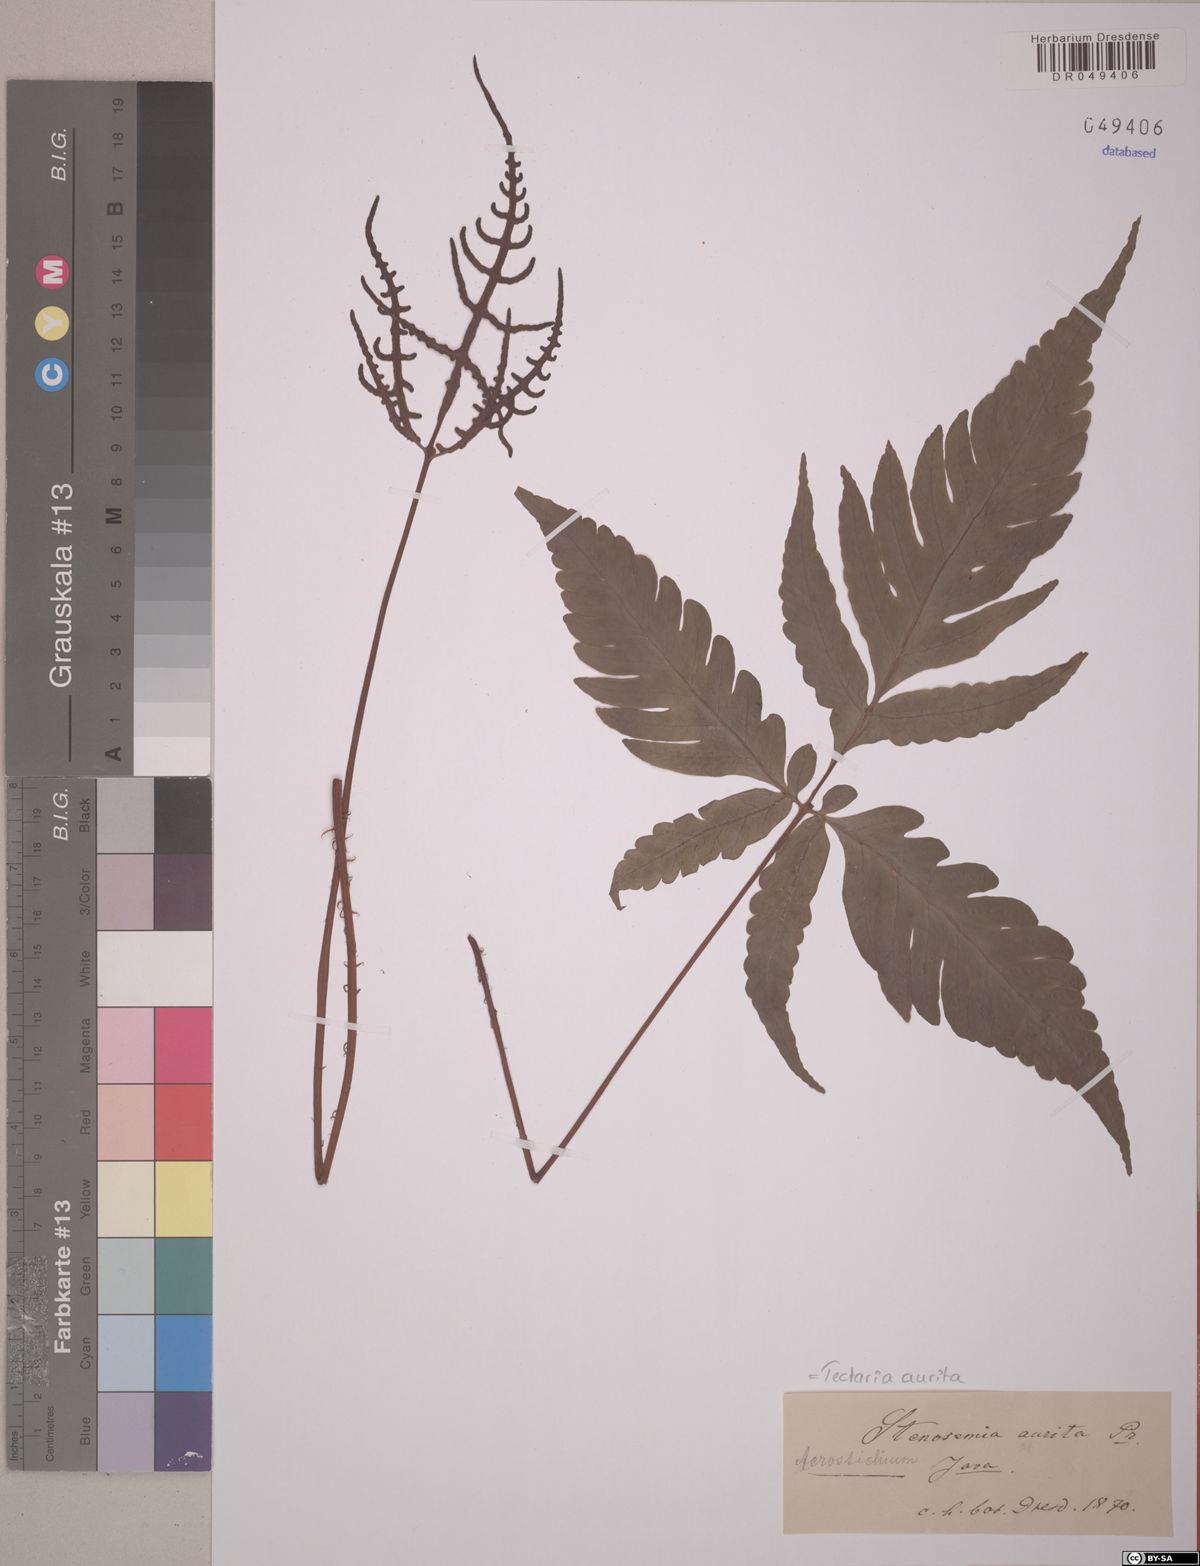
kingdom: Plantae
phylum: Tracheophyta
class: Polypodiopsida
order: Polypodiales
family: Tectariaceae
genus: Tectaria
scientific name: Tectaria aurita
